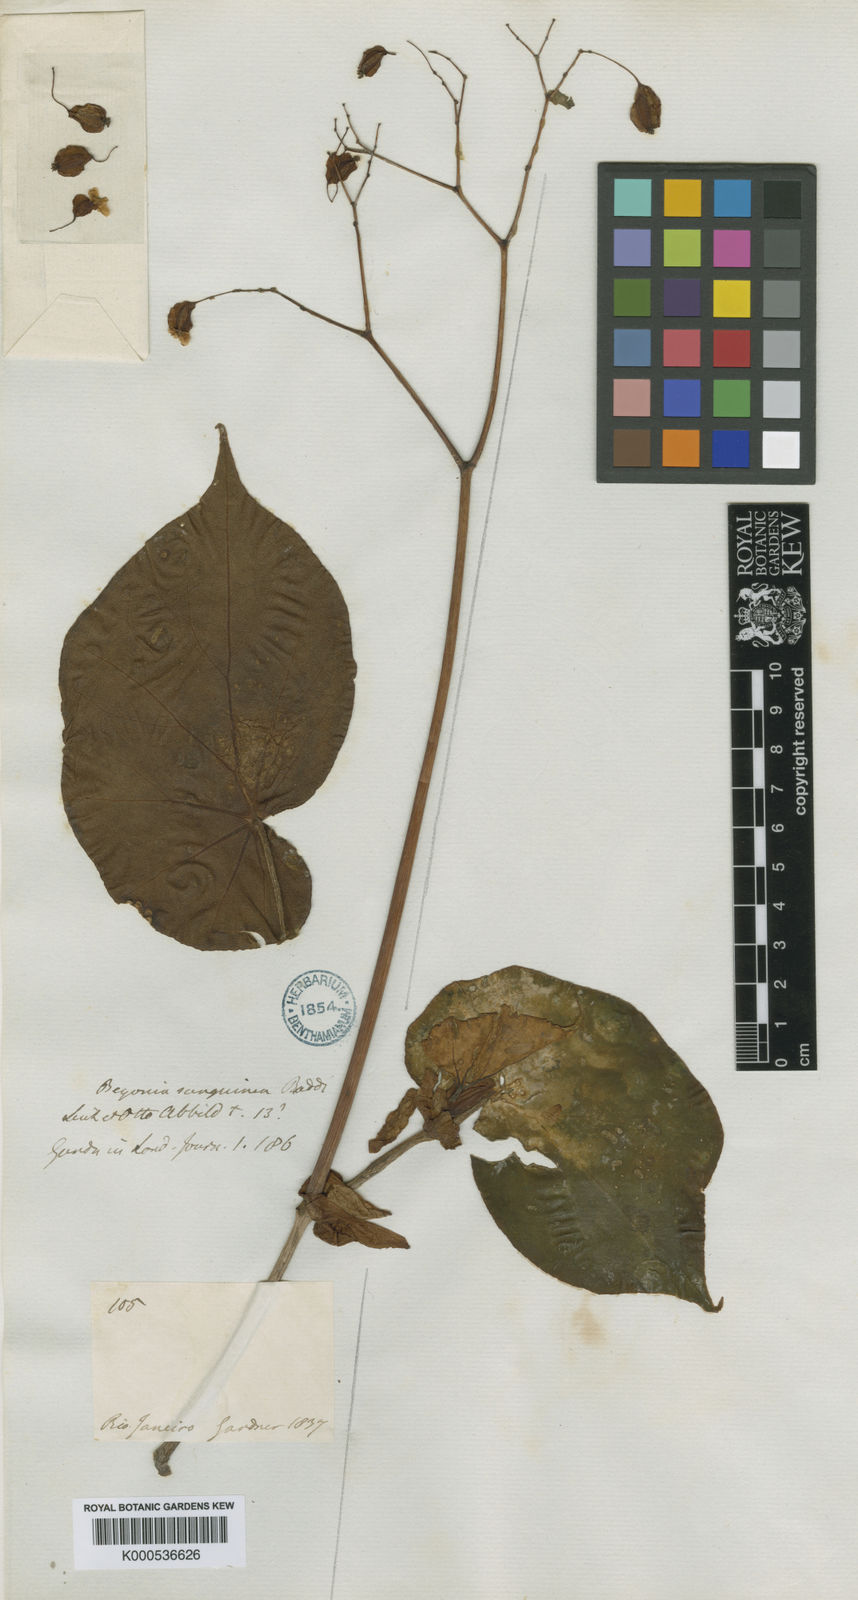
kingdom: Plantae
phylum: Tracheophyta
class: Magnoliopsida
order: Cucurbitales
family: Begoniaceae
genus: Begonia
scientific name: Begonia sanguinea
